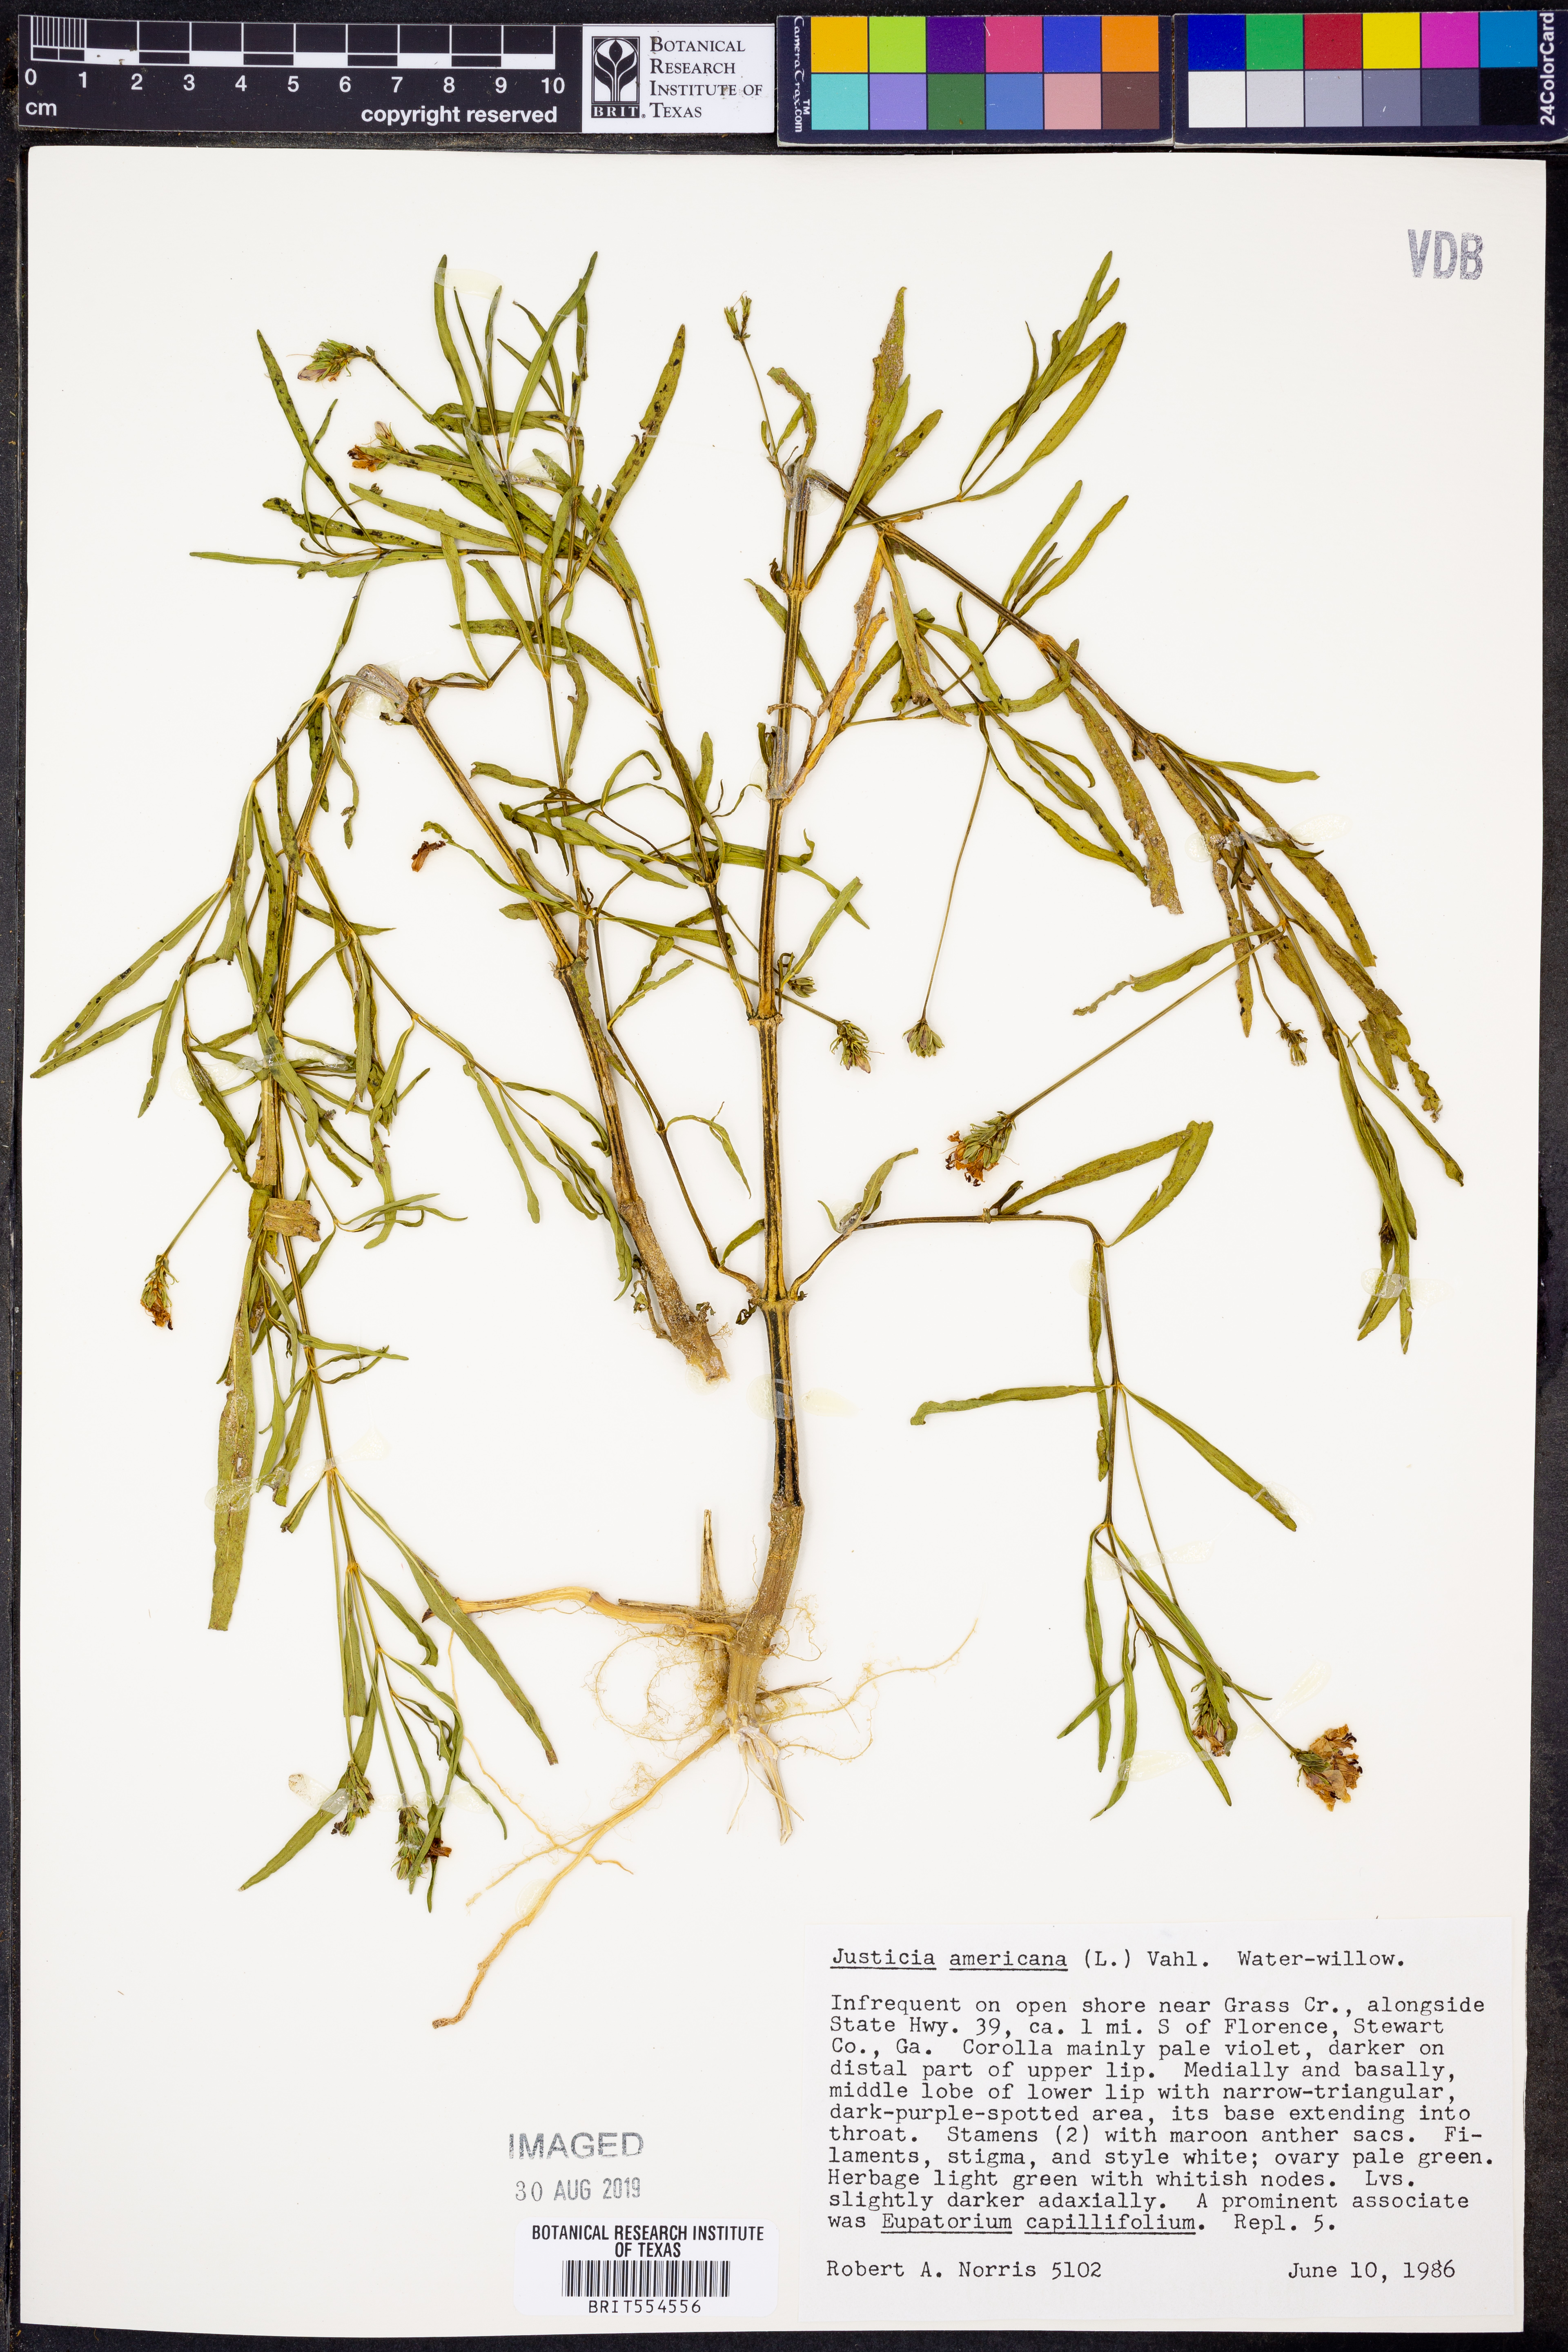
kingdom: Plantae
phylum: Tracheophyta
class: Magnoliopsida
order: Lamiales
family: Acanthaceae
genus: Dianthera
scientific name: Dianthera americana
